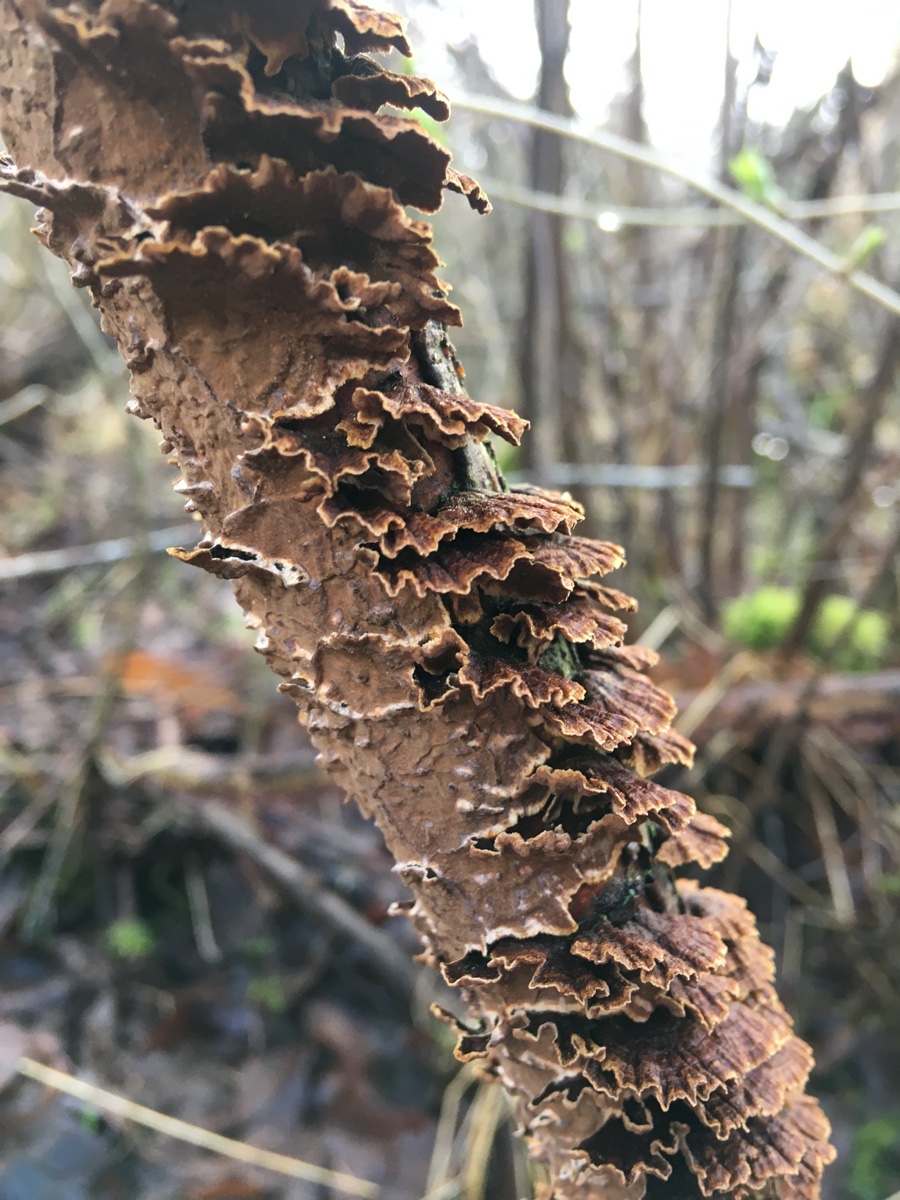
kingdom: Fungi
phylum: Basidiomycota
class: Agaricomycetes
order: Hymenochaetales
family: Hymenochaetaceae
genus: Hydnoporia
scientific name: Hydnoporia tabacina
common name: tobaksbrun ruslædersvamp
